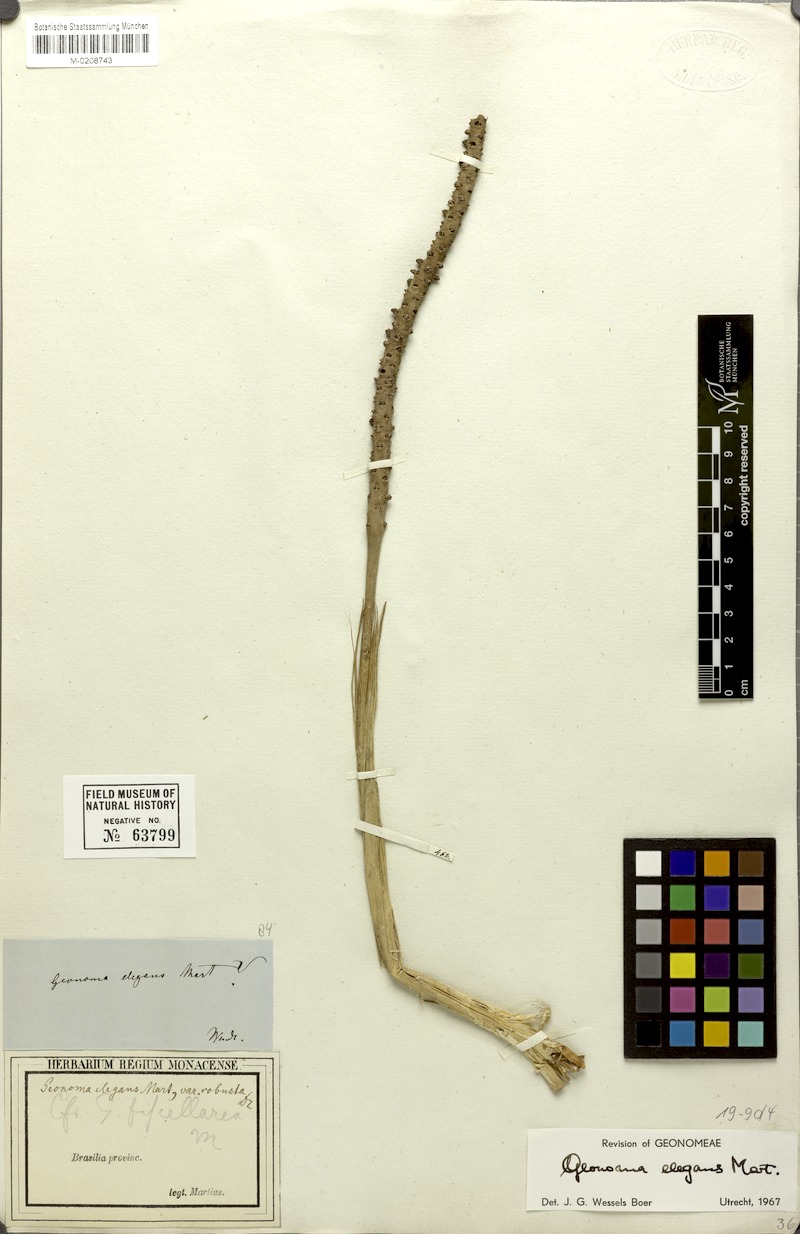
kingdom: Plantae
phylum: Tracheophyta
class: Liliopsida
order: Arecales
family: Arecaceae
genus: Geonoma
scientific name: Geonoma elegans
